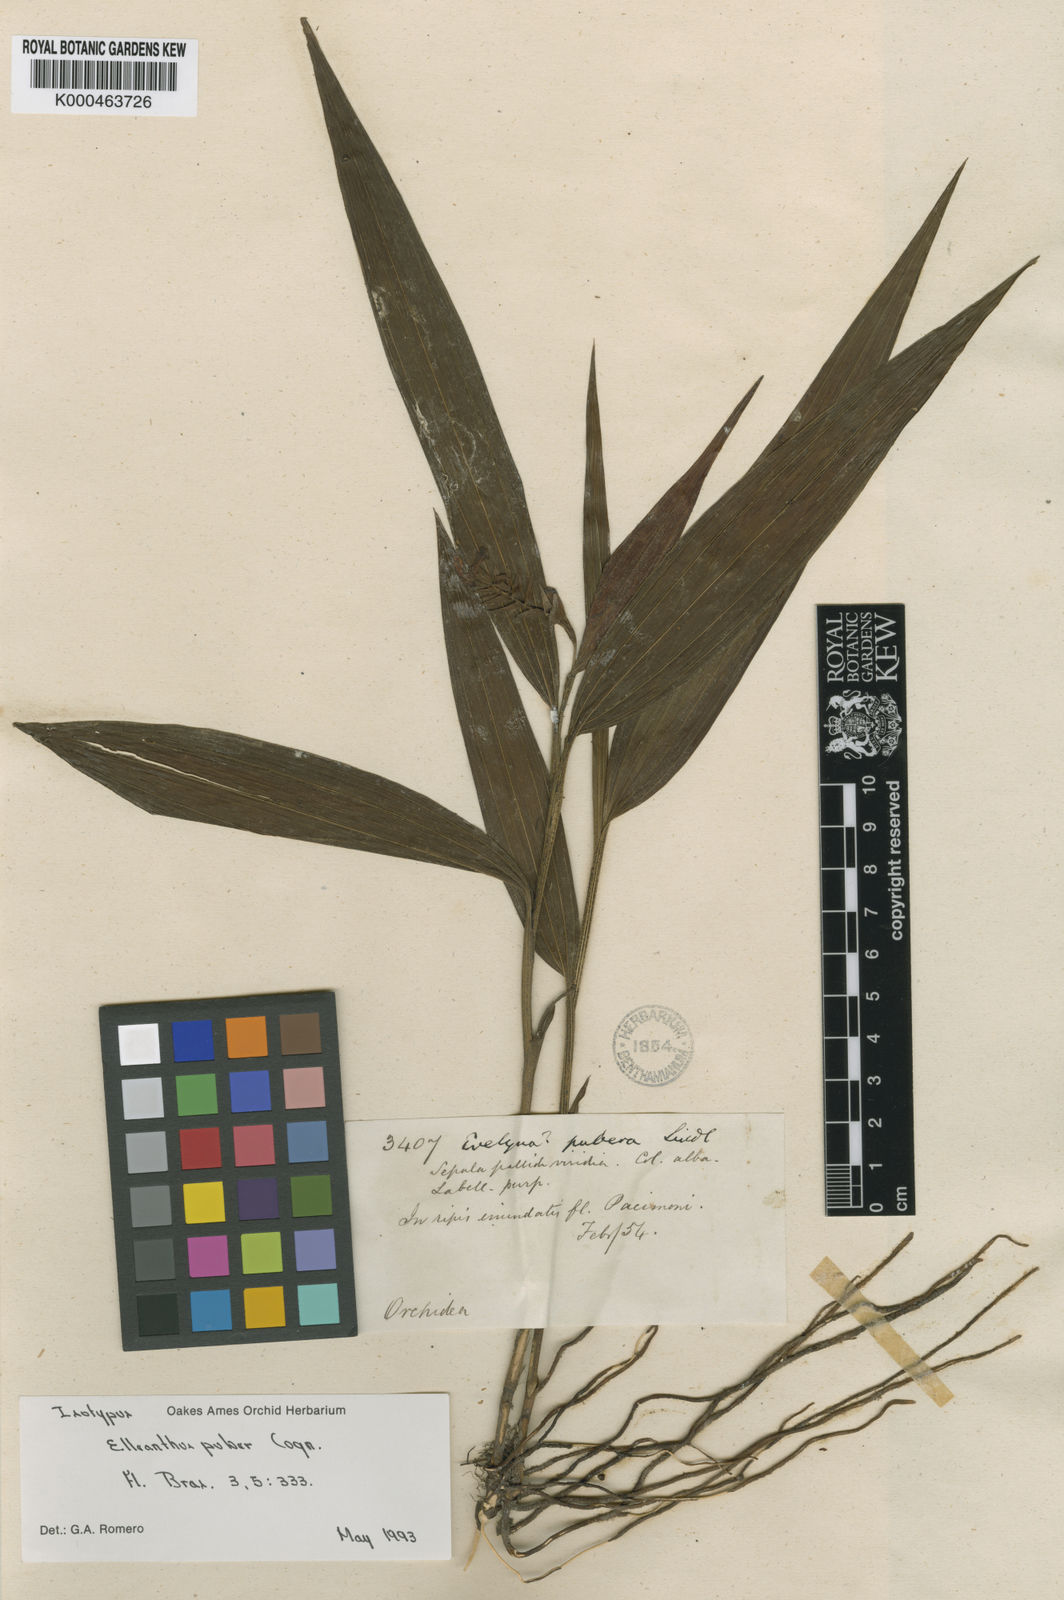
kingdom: Plantae
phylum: Tracheophyta
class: Liliopsida
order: Asparagales
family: Orchidaceae
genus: Palmorchis
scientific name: Palmorchis puber
